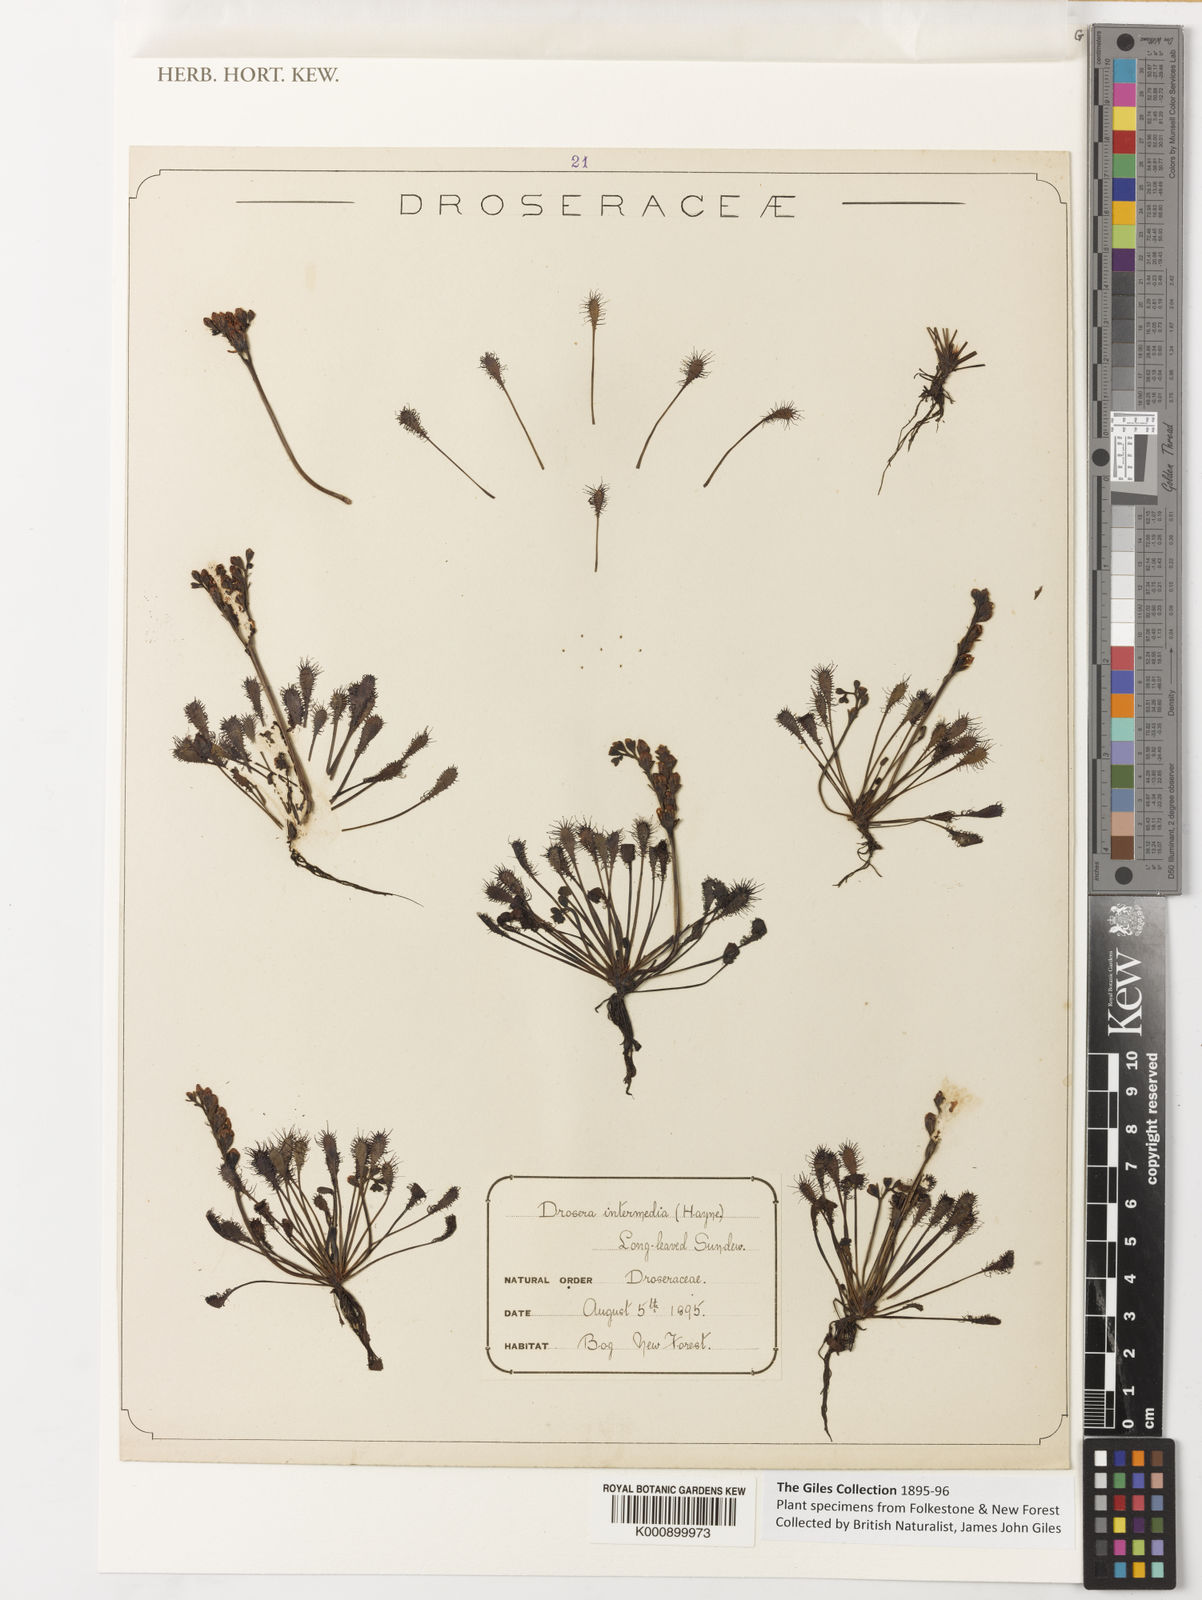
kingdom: Plantae
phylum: Tracheophyta
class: Magnoliopsida
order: Caryophyllales
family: Droseraceae
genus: Drosera
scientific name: Drosera intermedia
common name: Oblong-leaved sundew
